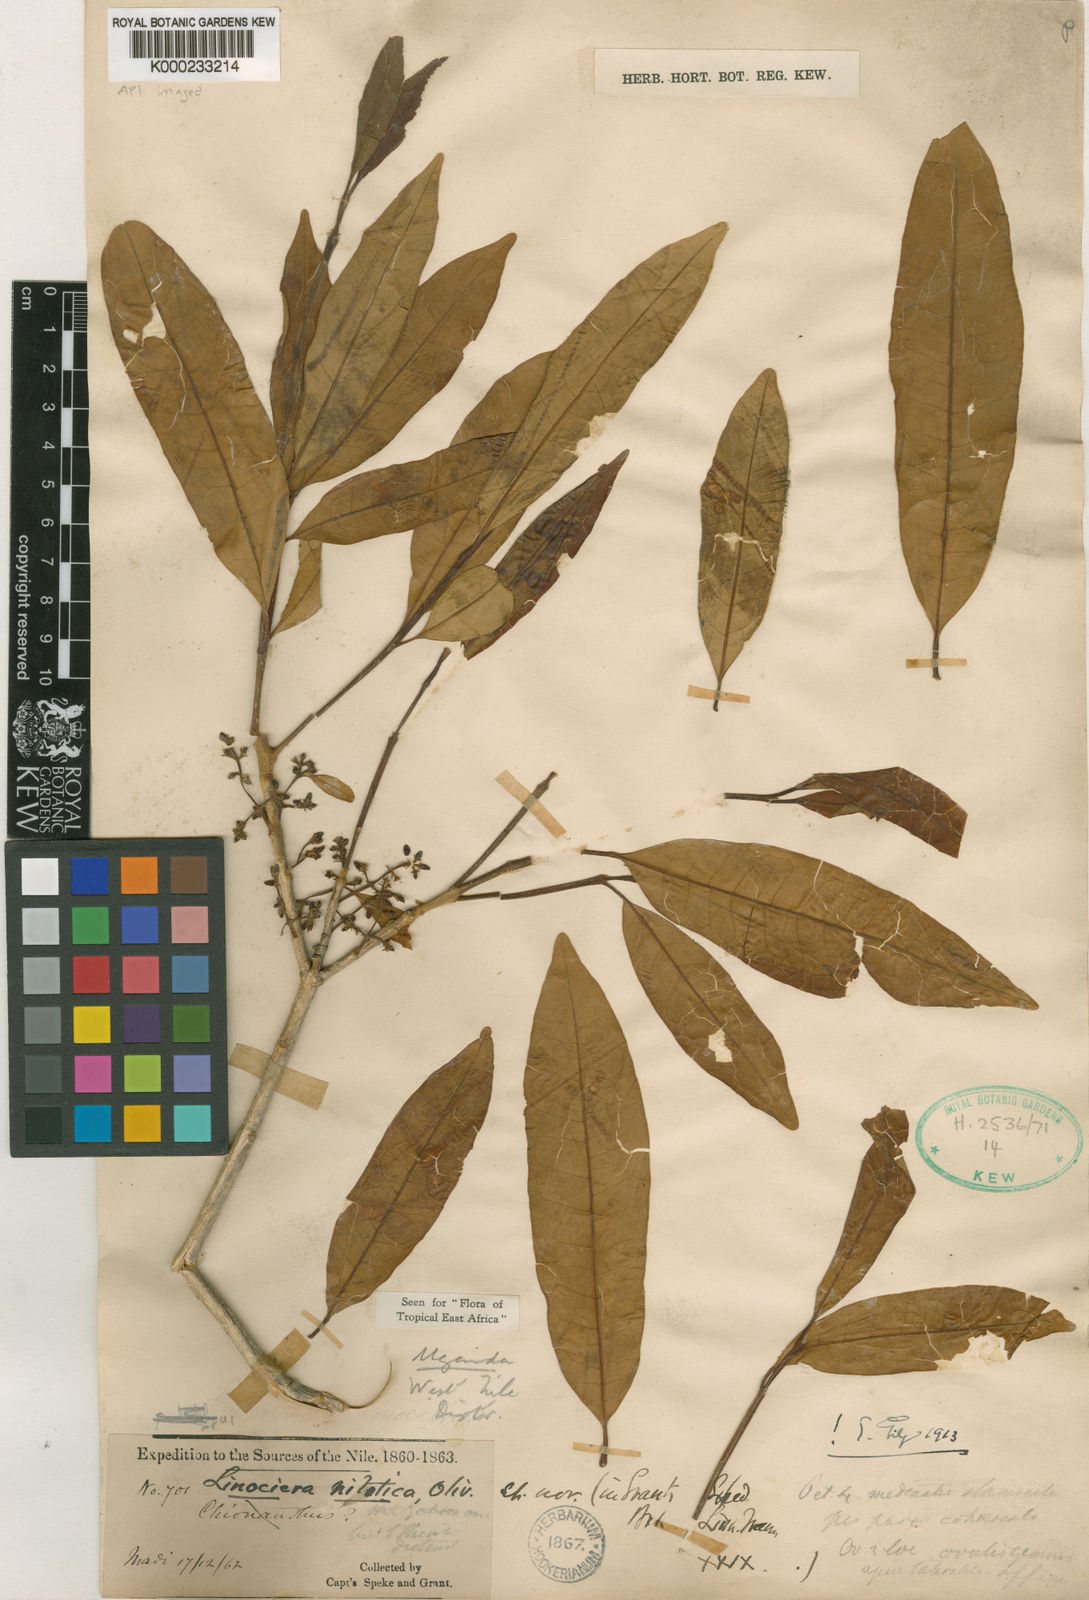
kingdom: Plantae
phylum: Tracheophyta
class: Magnoliopsida
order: Lamiales
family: Oleaceae
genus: Noronhia
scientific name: Noronhia nilotica
